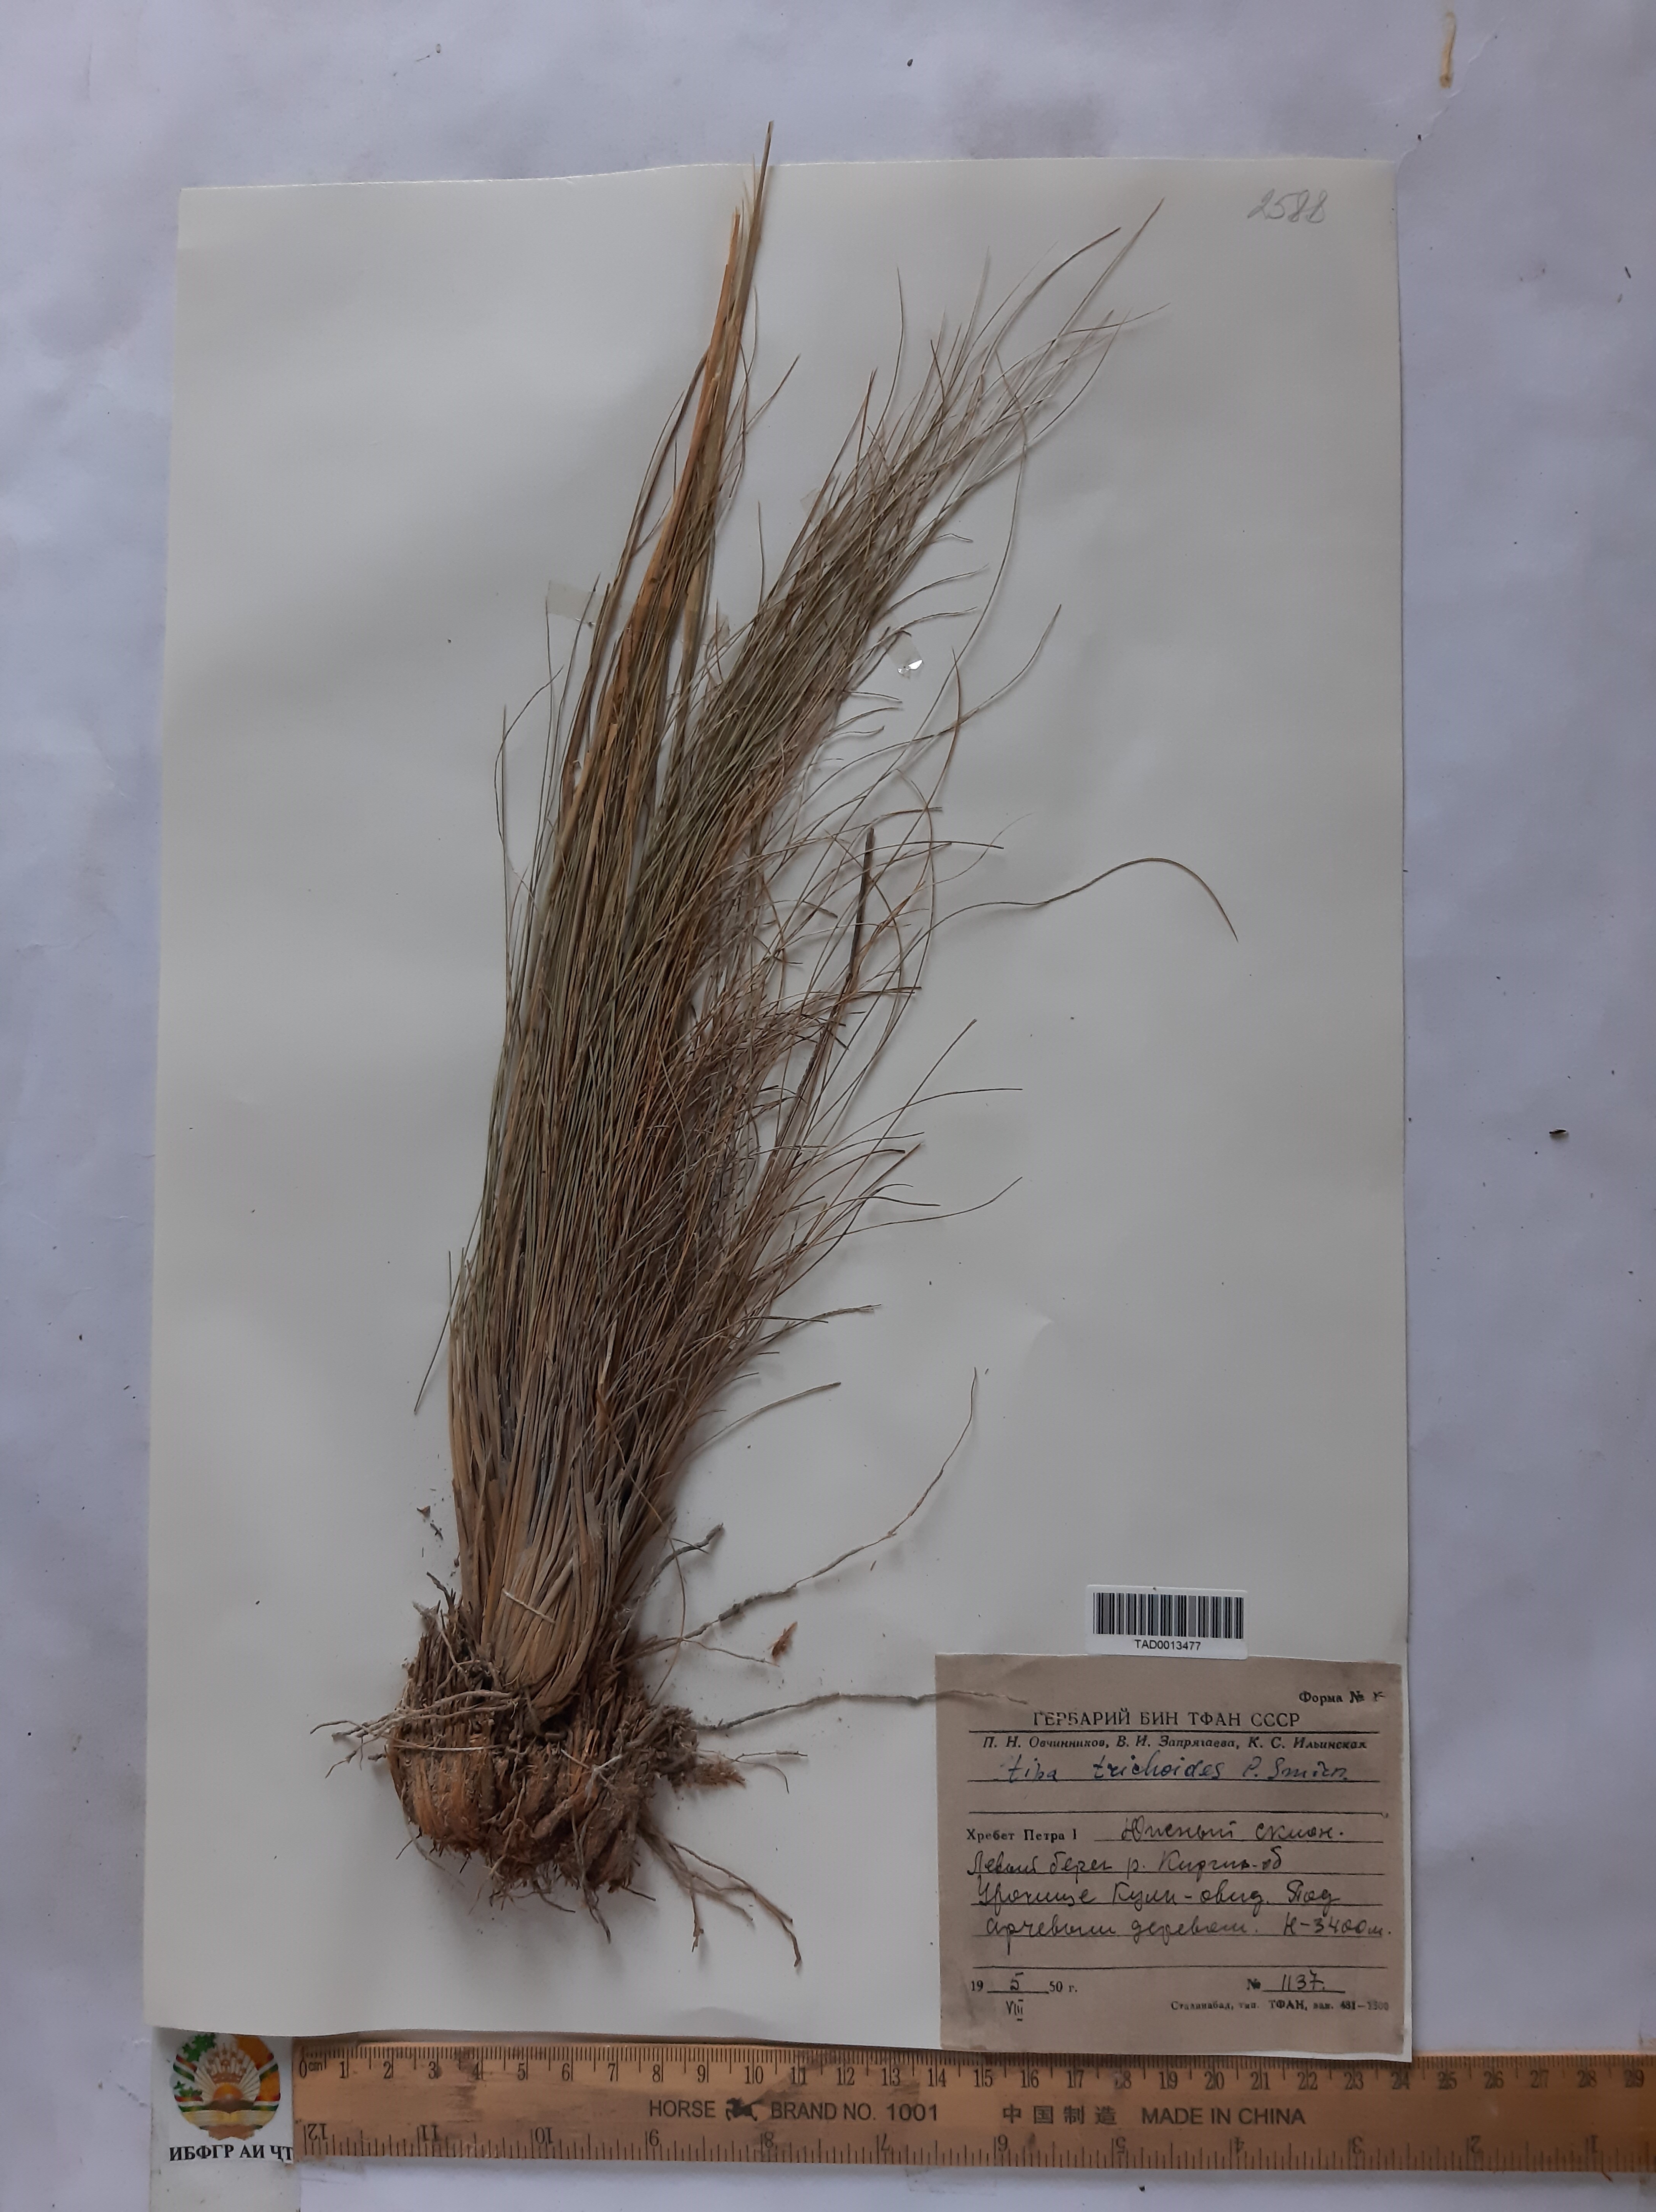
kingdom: Plantae
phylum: Tracheophyta
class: Liliopsida
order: Poales
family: Poaceae
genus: Stipa
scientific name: Stipa trichoides
